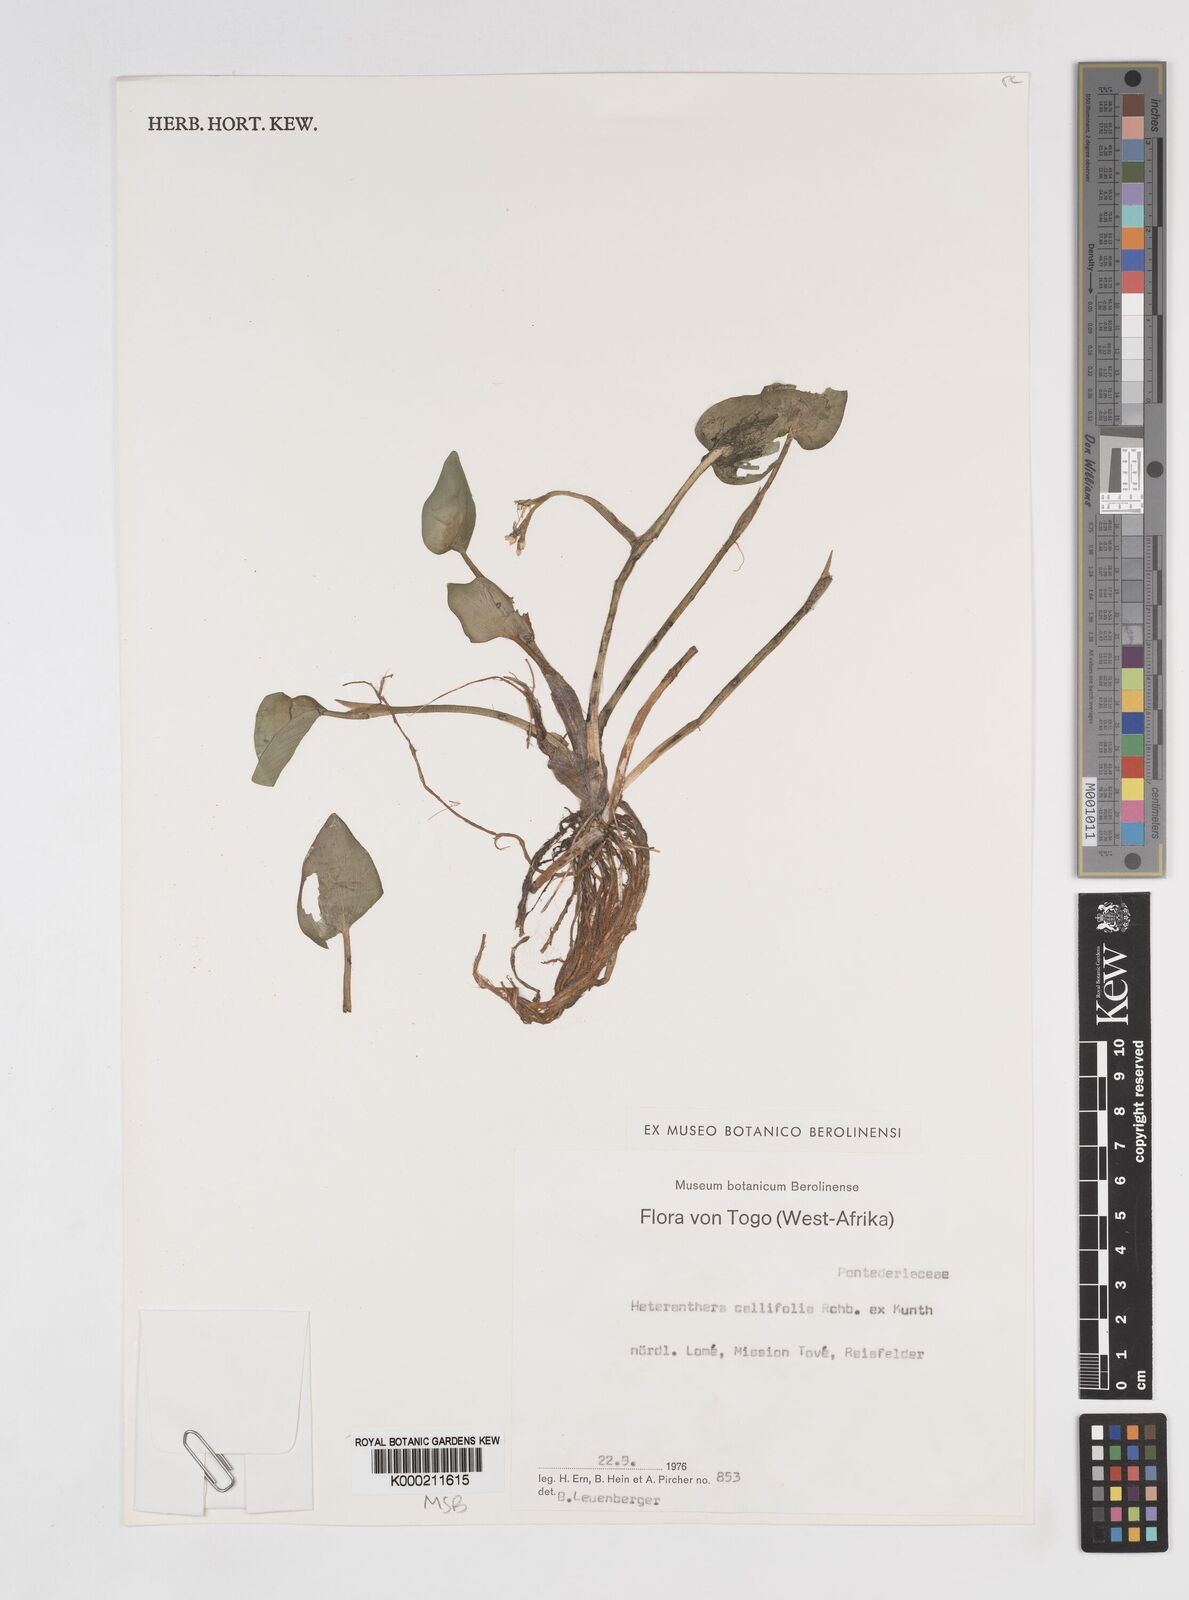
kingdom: Plantae
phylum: Tracheophyta
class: Liliopsida
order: Commelinales
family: Pontederiaceae
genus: Heteranthera
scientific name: Heteranthera callifolia
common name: Mud plantain
